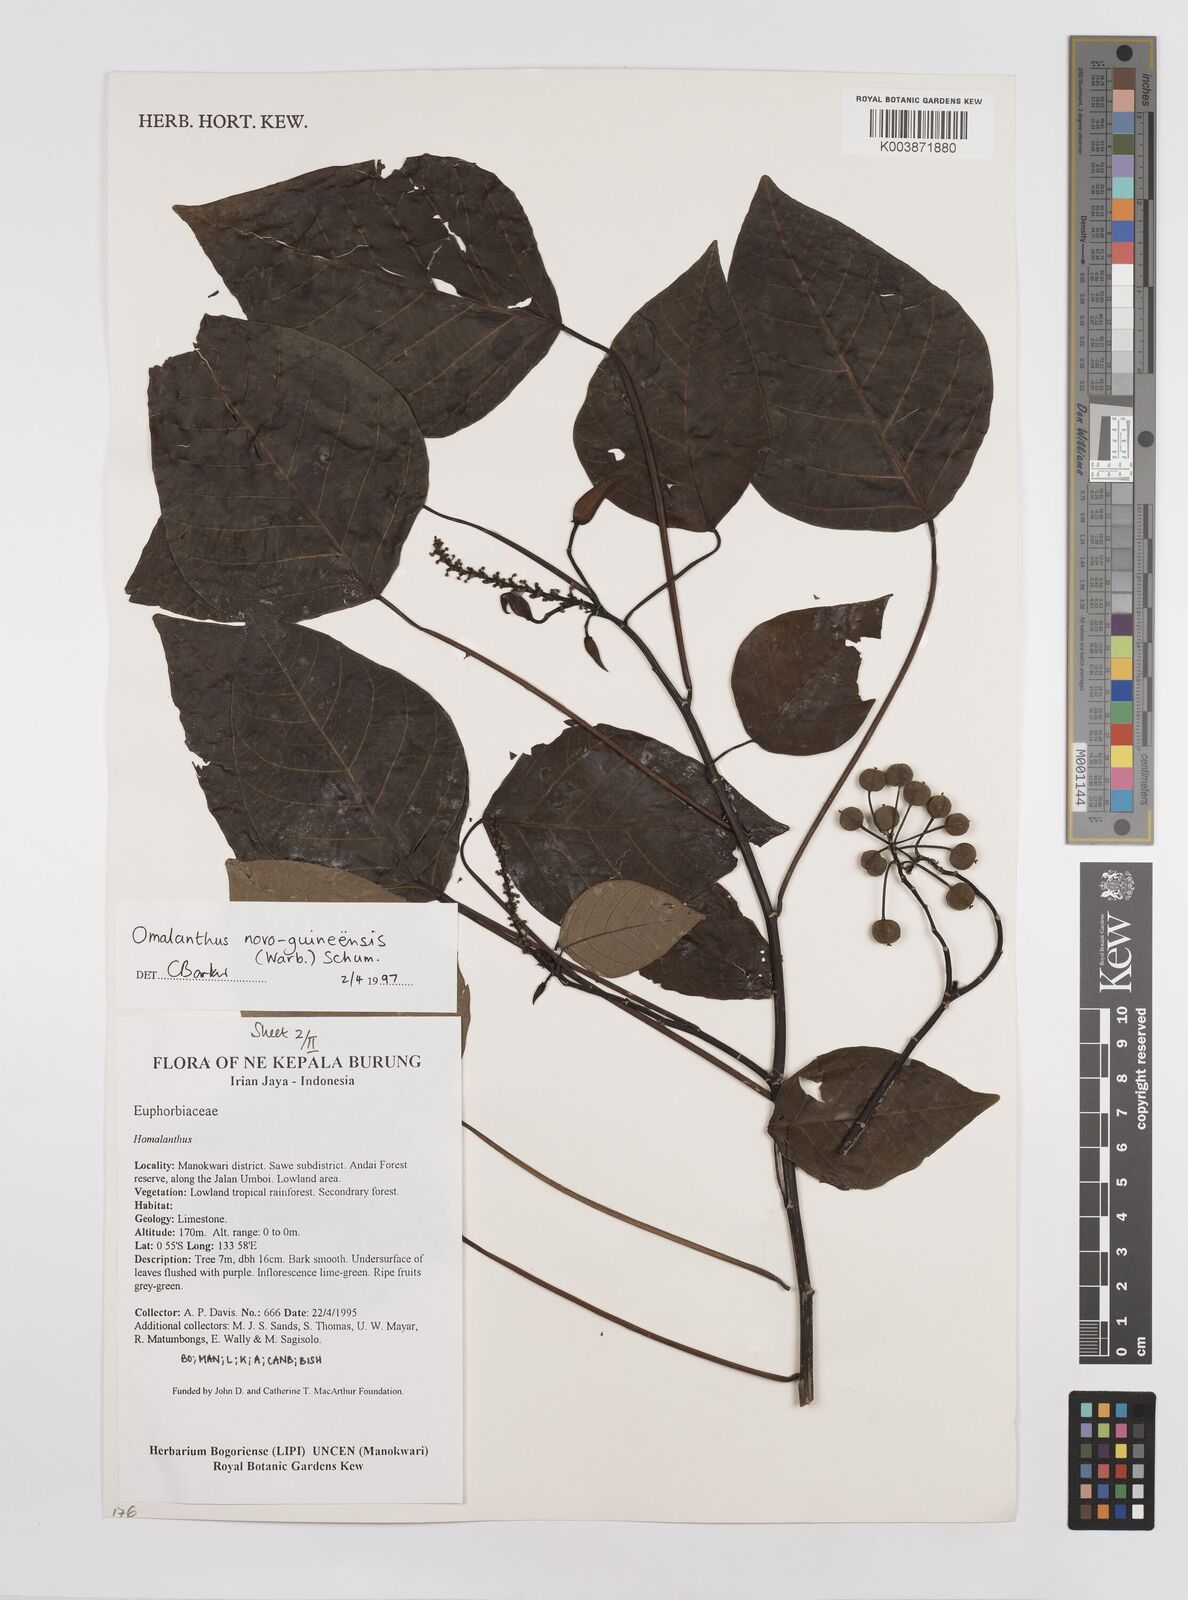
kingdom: Plantae
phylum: Tracheophyta
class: Magnoliopsida
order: Malpighiales
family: Euphorbiaceae
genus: Homalanthus
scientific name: Homalanthus novoguineensis
